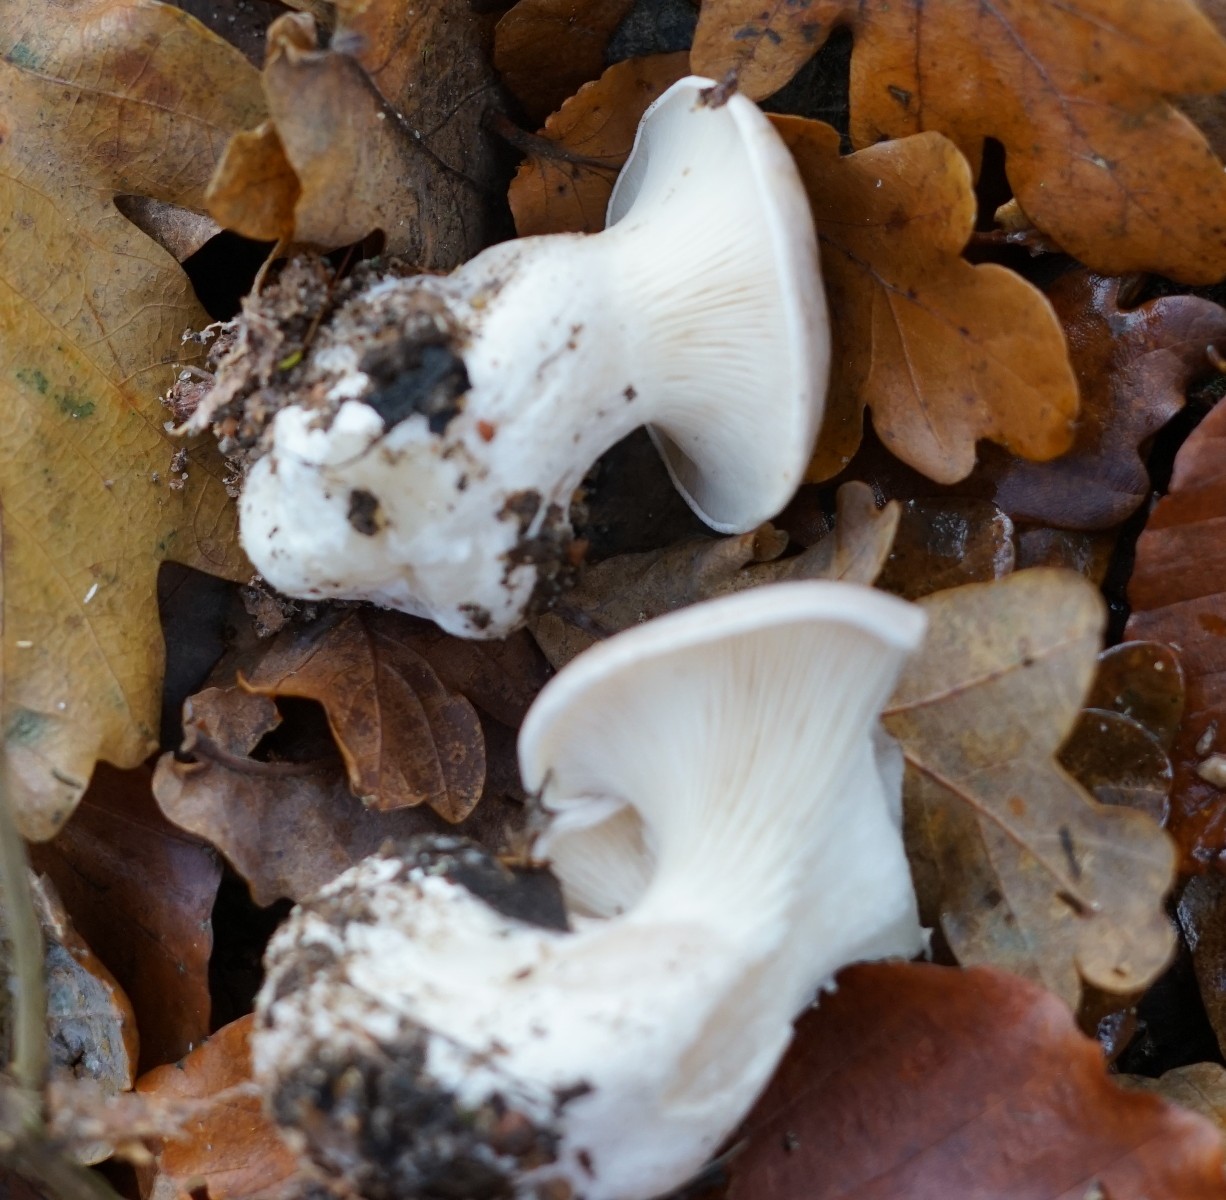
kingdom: Fungi
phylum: Basidiomycota
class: Agaricomycetes
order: Agaricales
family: Tricholomataceae
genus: Clitocybe
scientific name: Clitocybe nebularis
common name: tåge-tragthat
